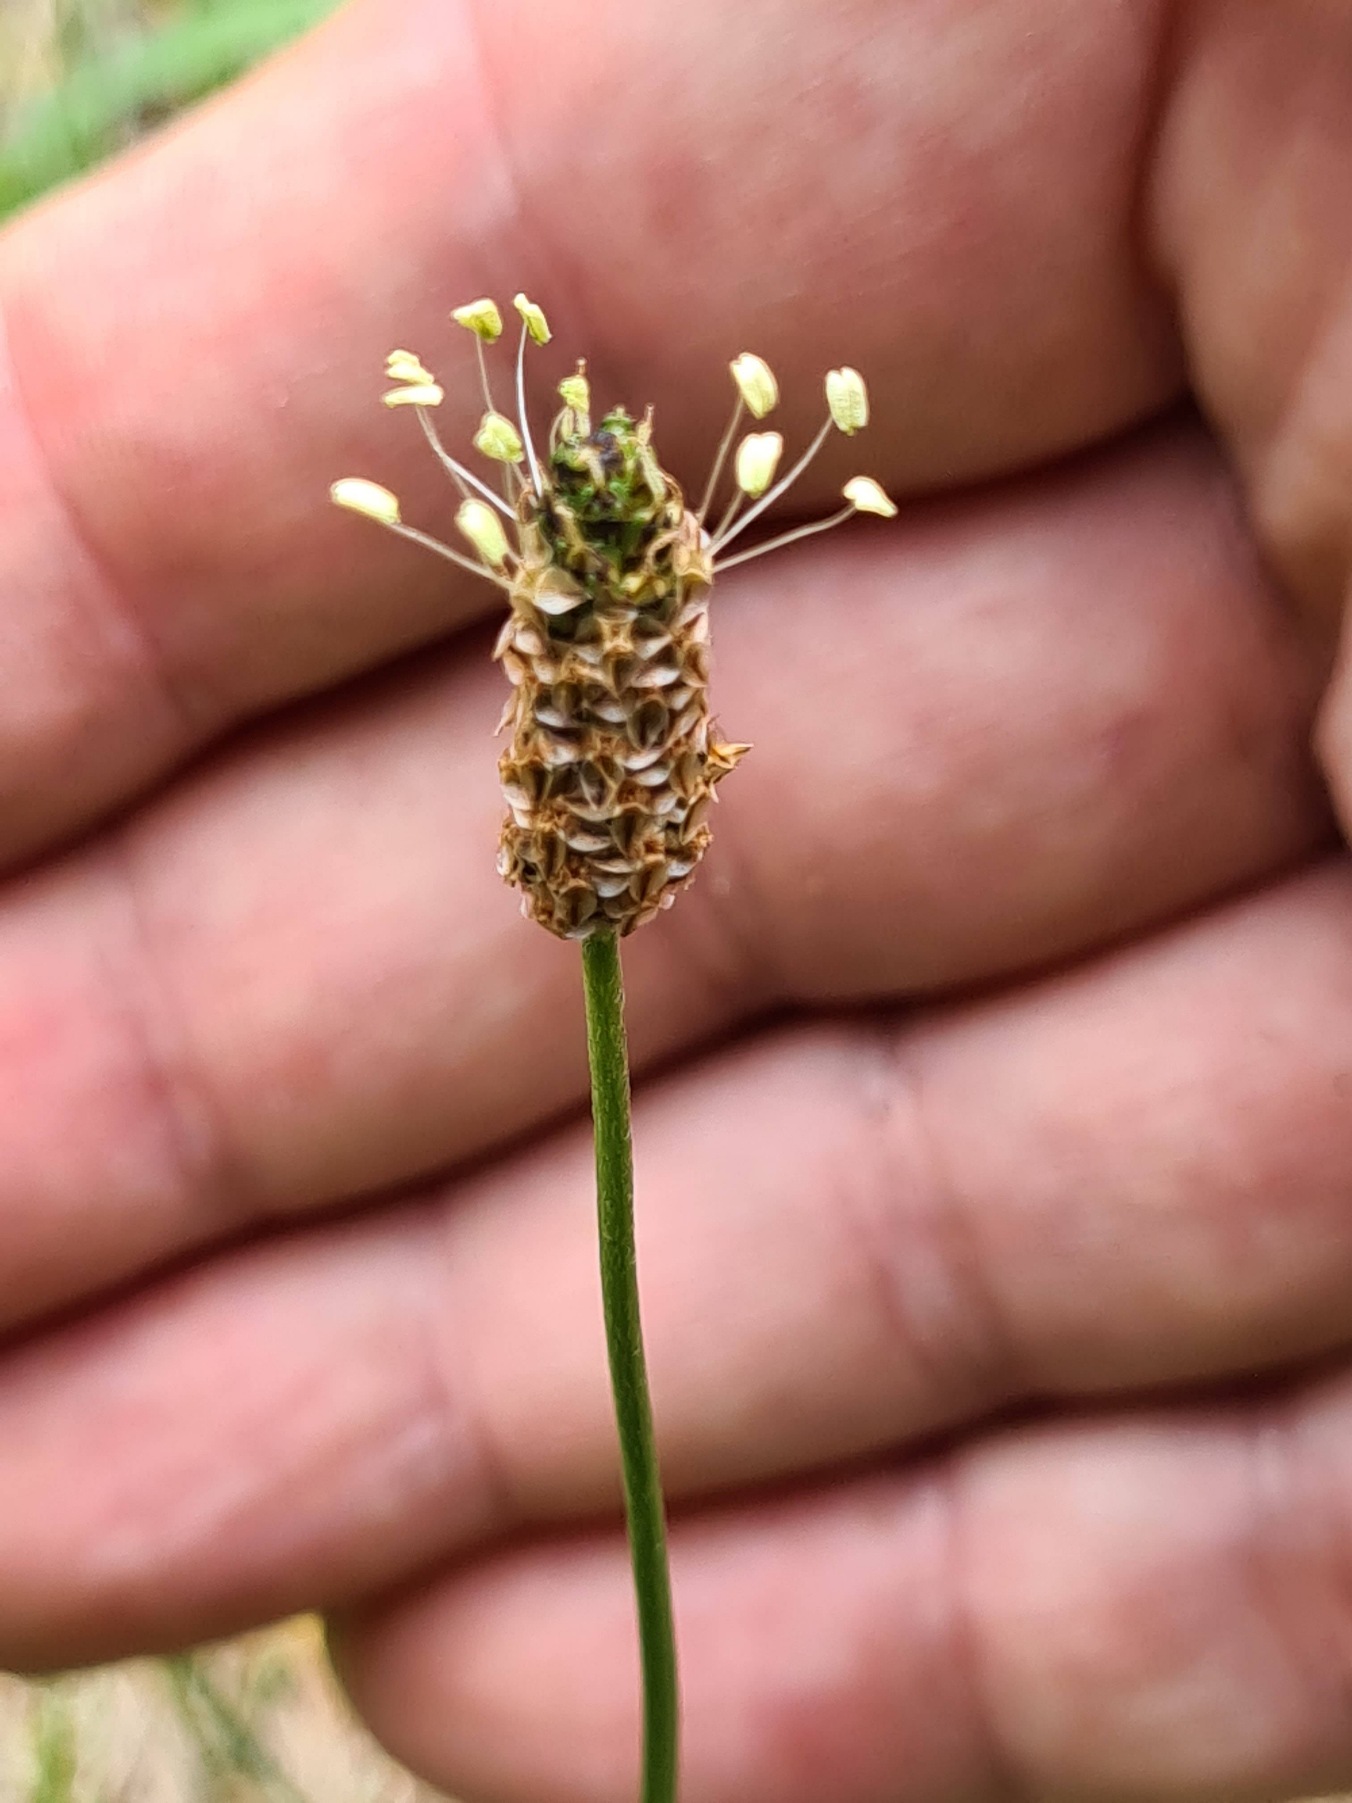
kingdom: Plantae
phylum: Tracheophyta
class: Magnoliopsida
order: Lamiales
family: Plantaginaceae
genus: Plantago
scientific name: Plantago lanceolata
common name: Lancet-vejbred
